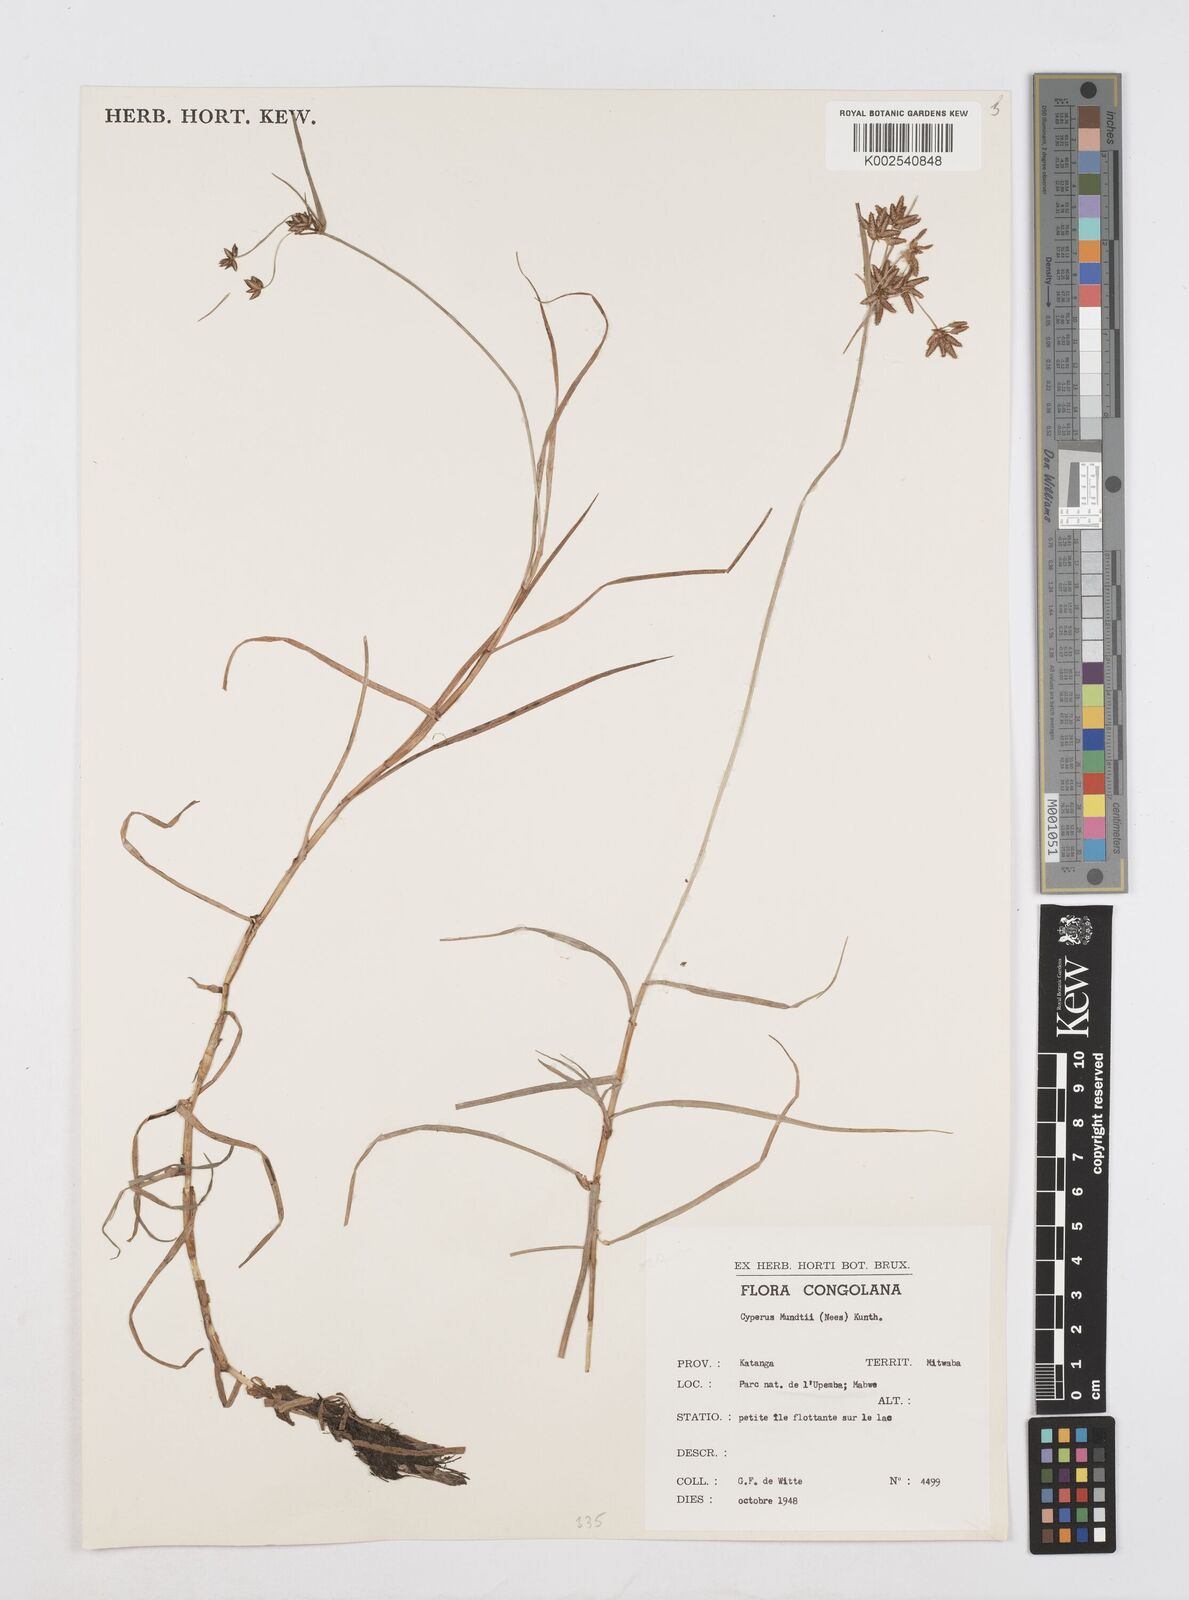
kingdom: Plantae
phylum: Tracheophyta
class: Liliopsida
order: Poales
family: Cyperaceae
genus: Cyperus
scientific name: Cyperus mundii
